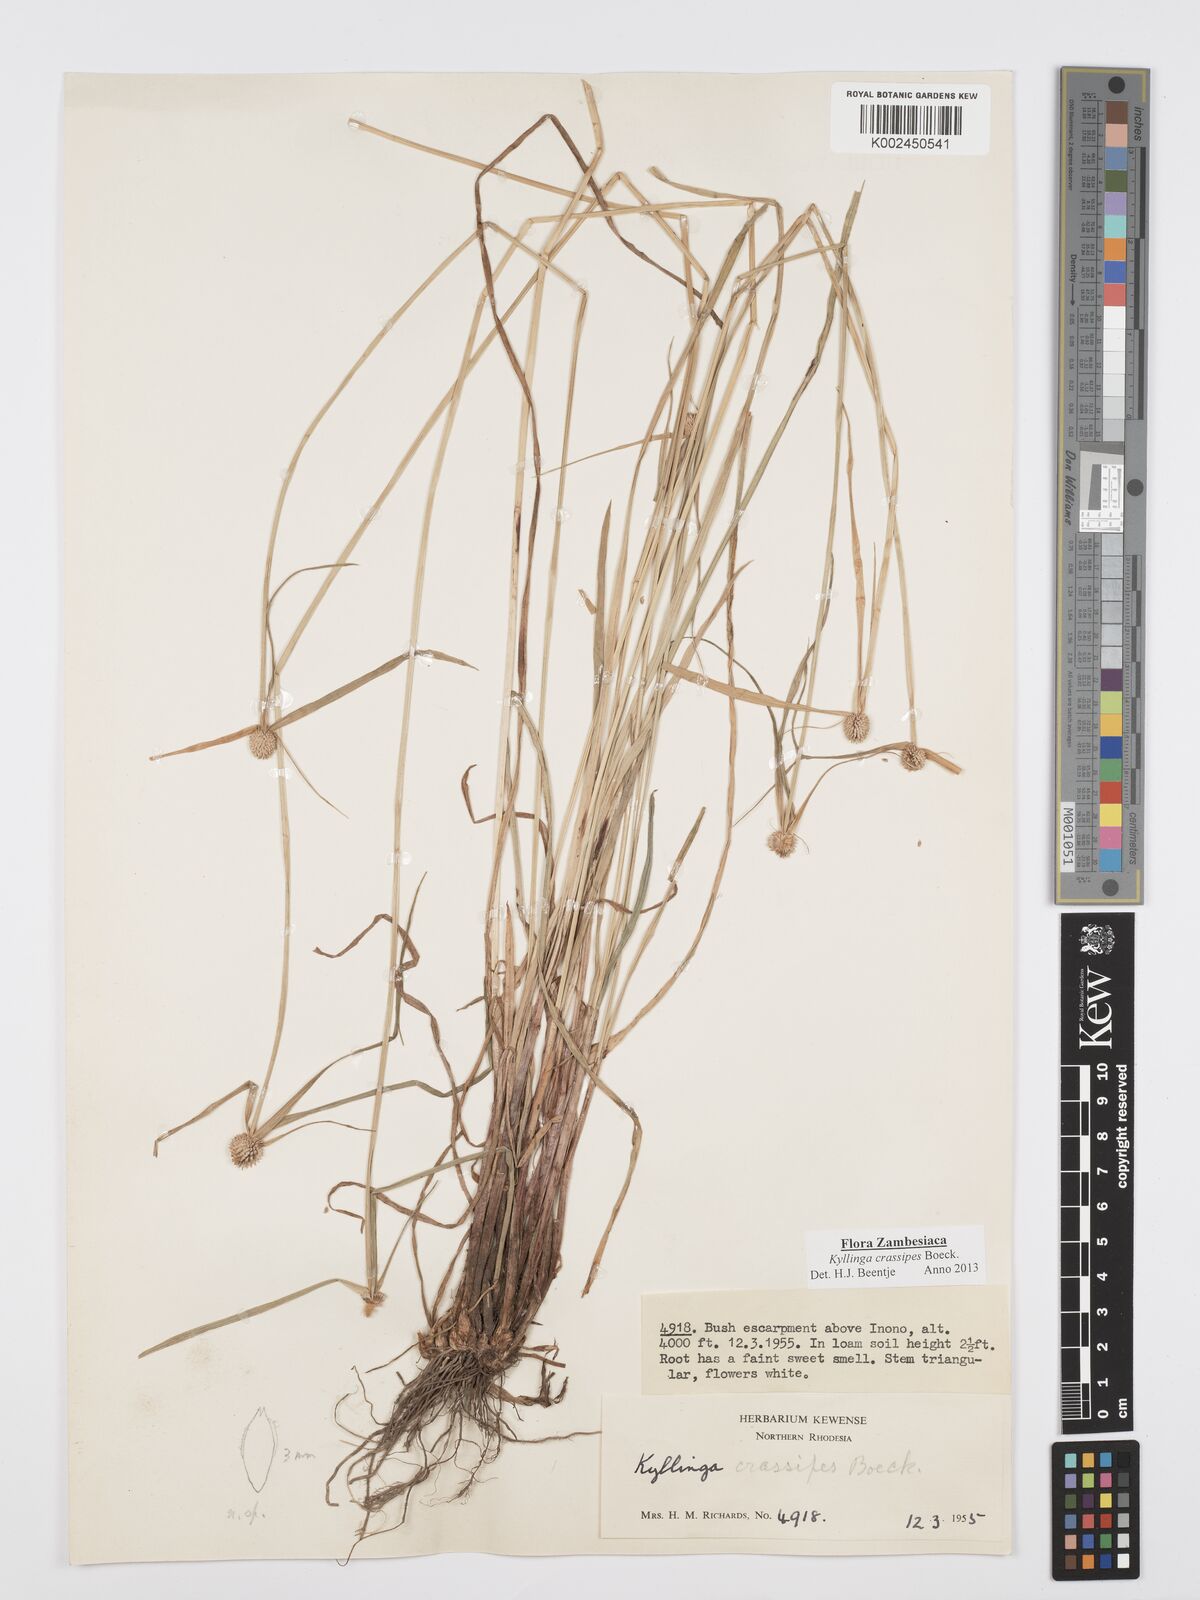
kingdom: Plantae
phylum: Tracheophyta
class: Liliopsida
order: Poales
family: Cyperaceae
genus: Cyperus
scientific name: Cyperus crassipes
